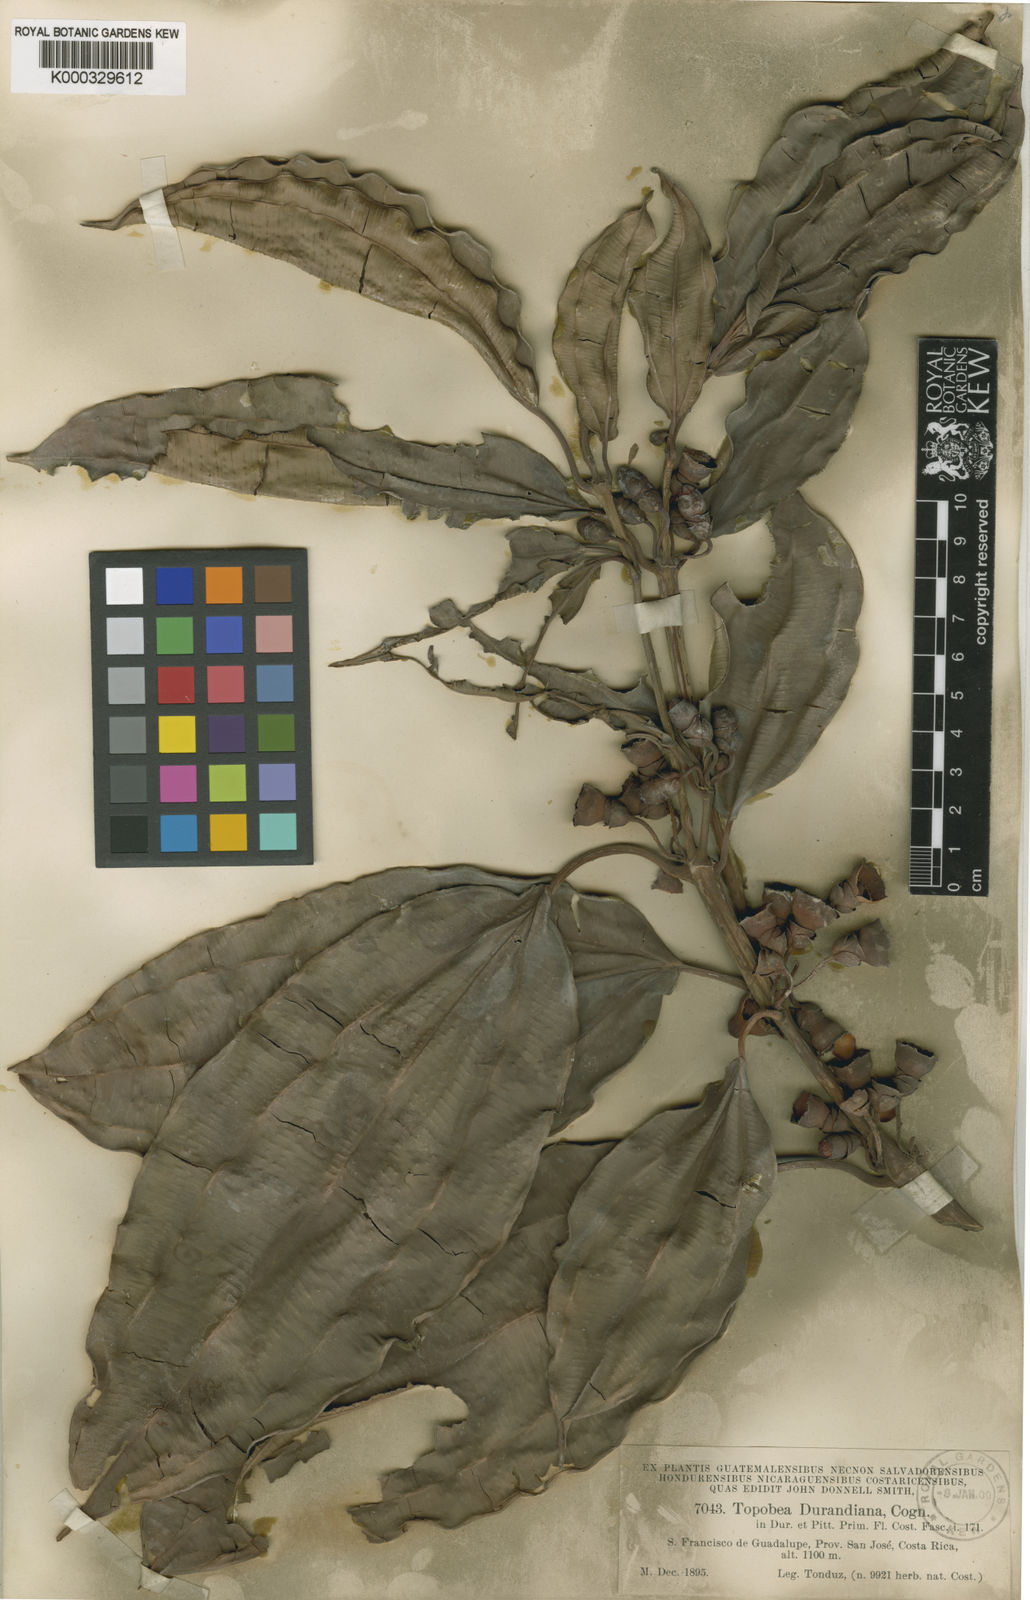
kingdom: Plantae
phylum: Tracheophyta
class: Magnoliopsida
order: Myrtales
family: Melastomataceae
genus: Blakea
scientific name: Blakea
